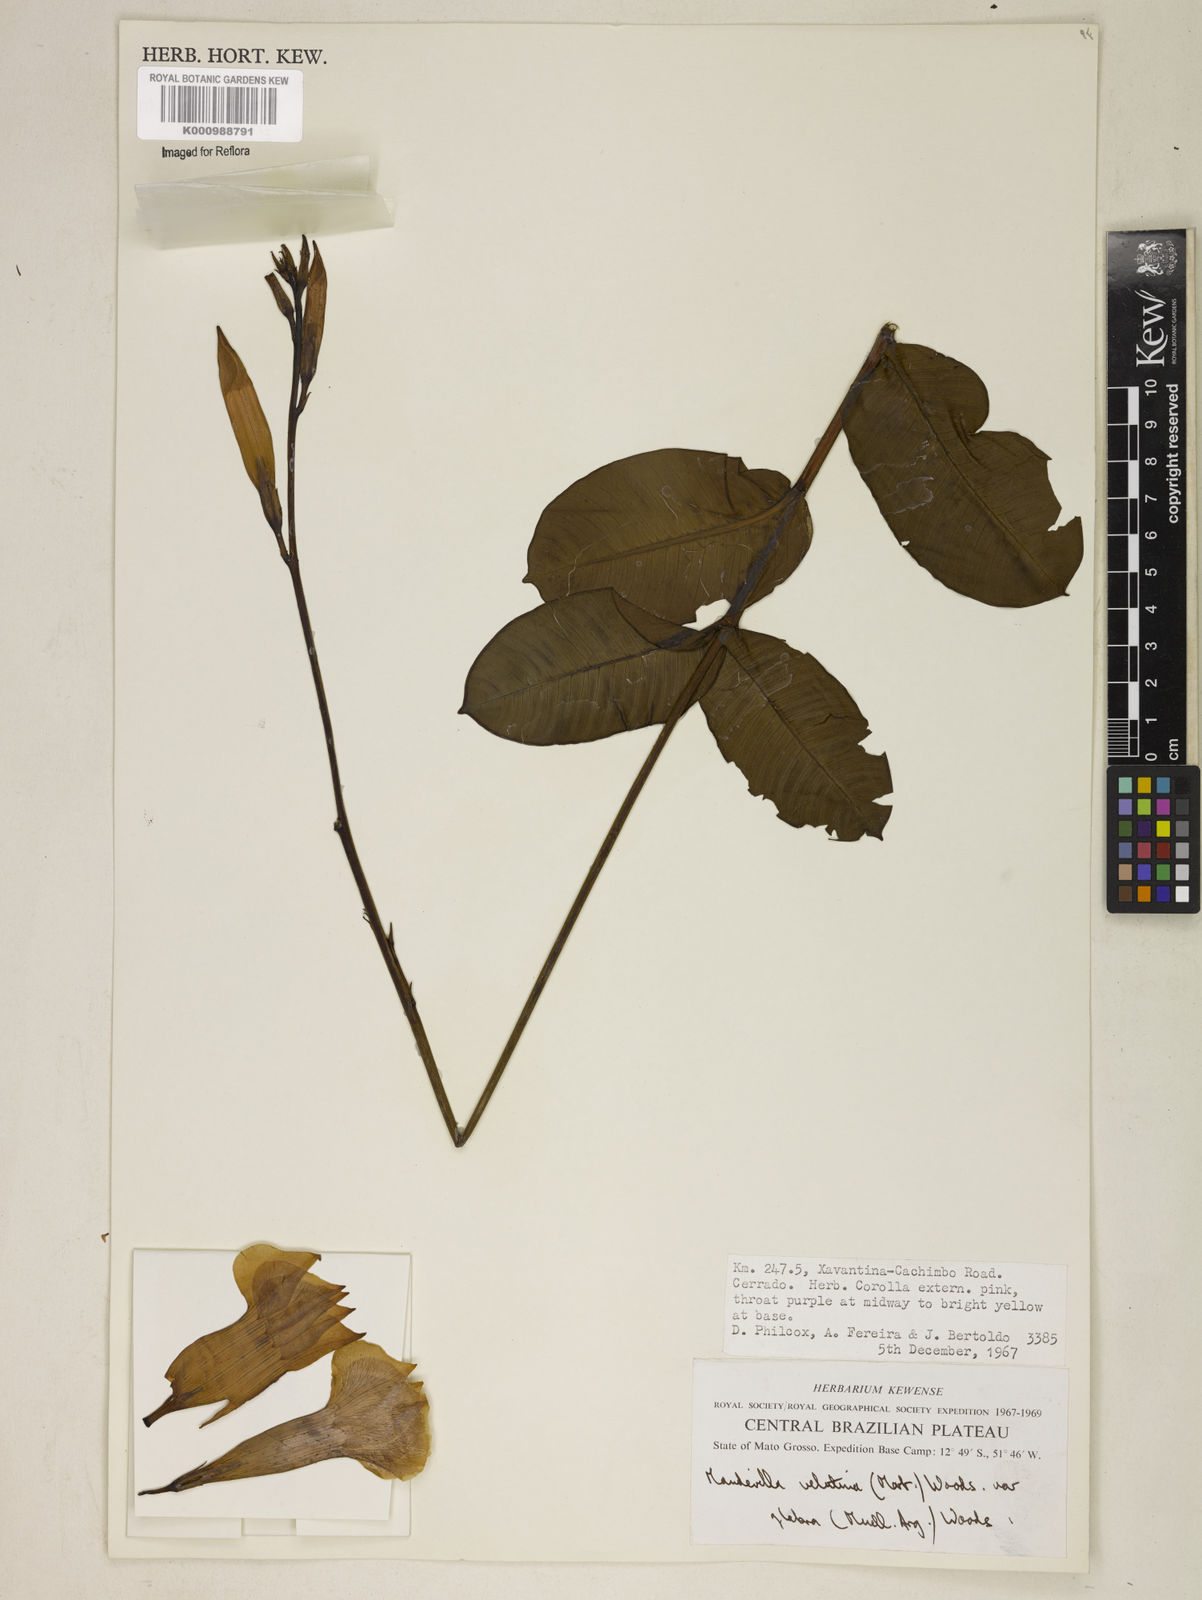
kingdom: Plantae
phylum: Tracheophyta
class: Magnoliopsida
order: Gentianales
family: Apocynaceae
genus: Mandevilla
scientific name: Mandevilla pohliana
